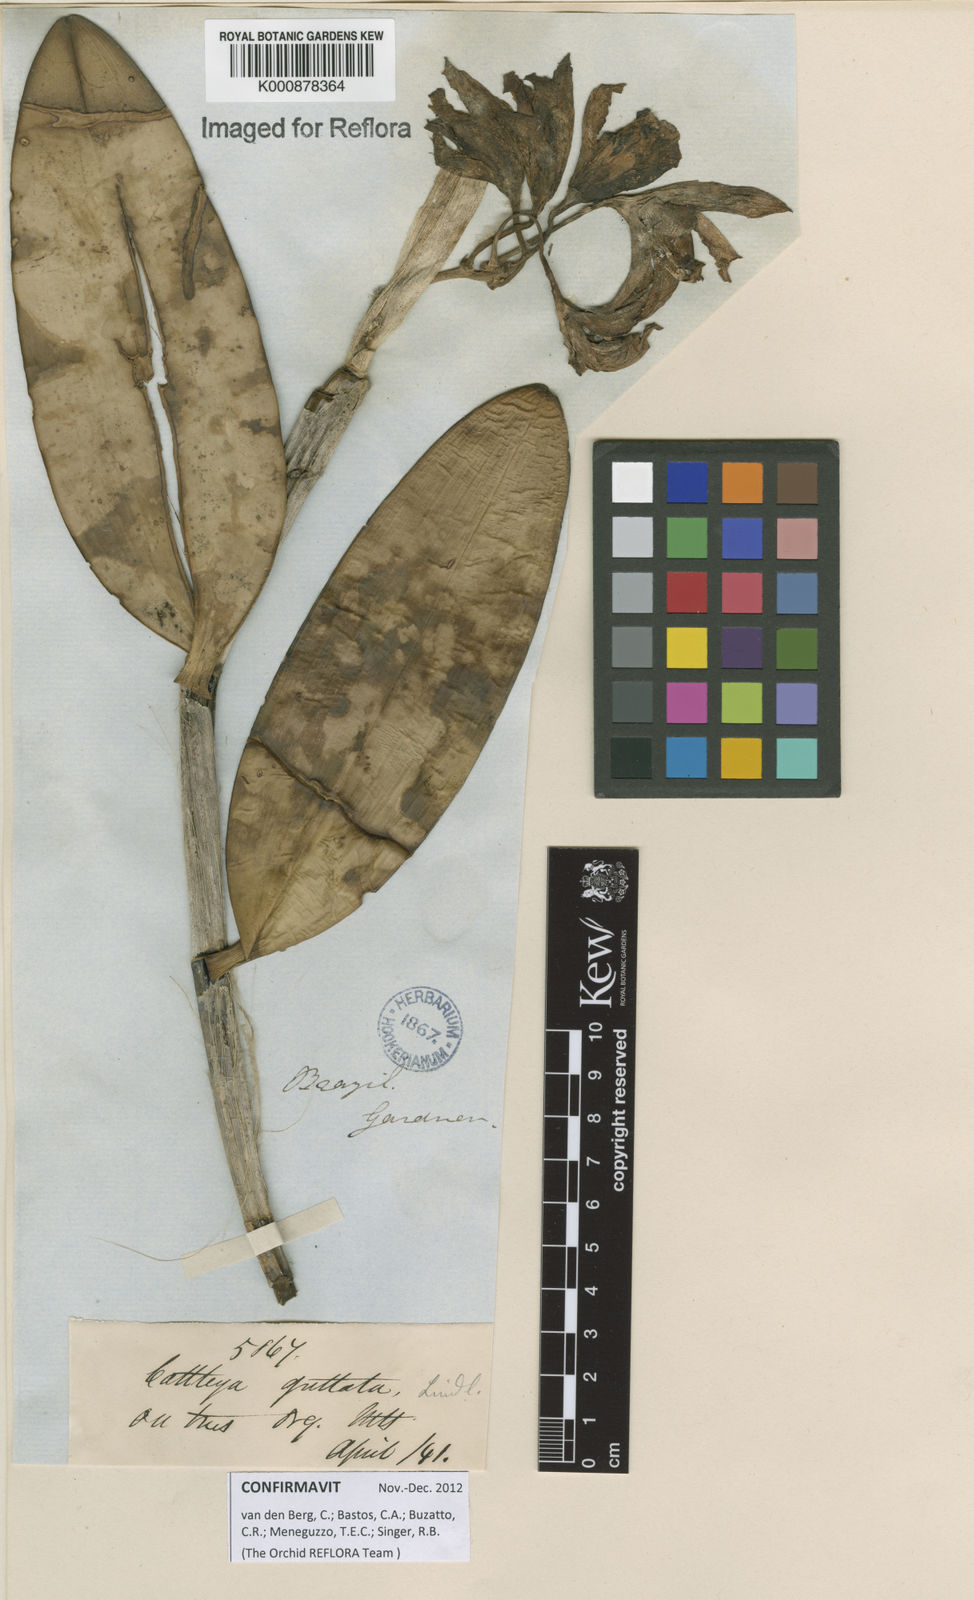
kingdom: Plantae
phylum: Tracheophyta
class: Liliopsida
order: Asparagales
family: Orchidaceae
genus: Cattleya
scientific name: Cattleya guttata
